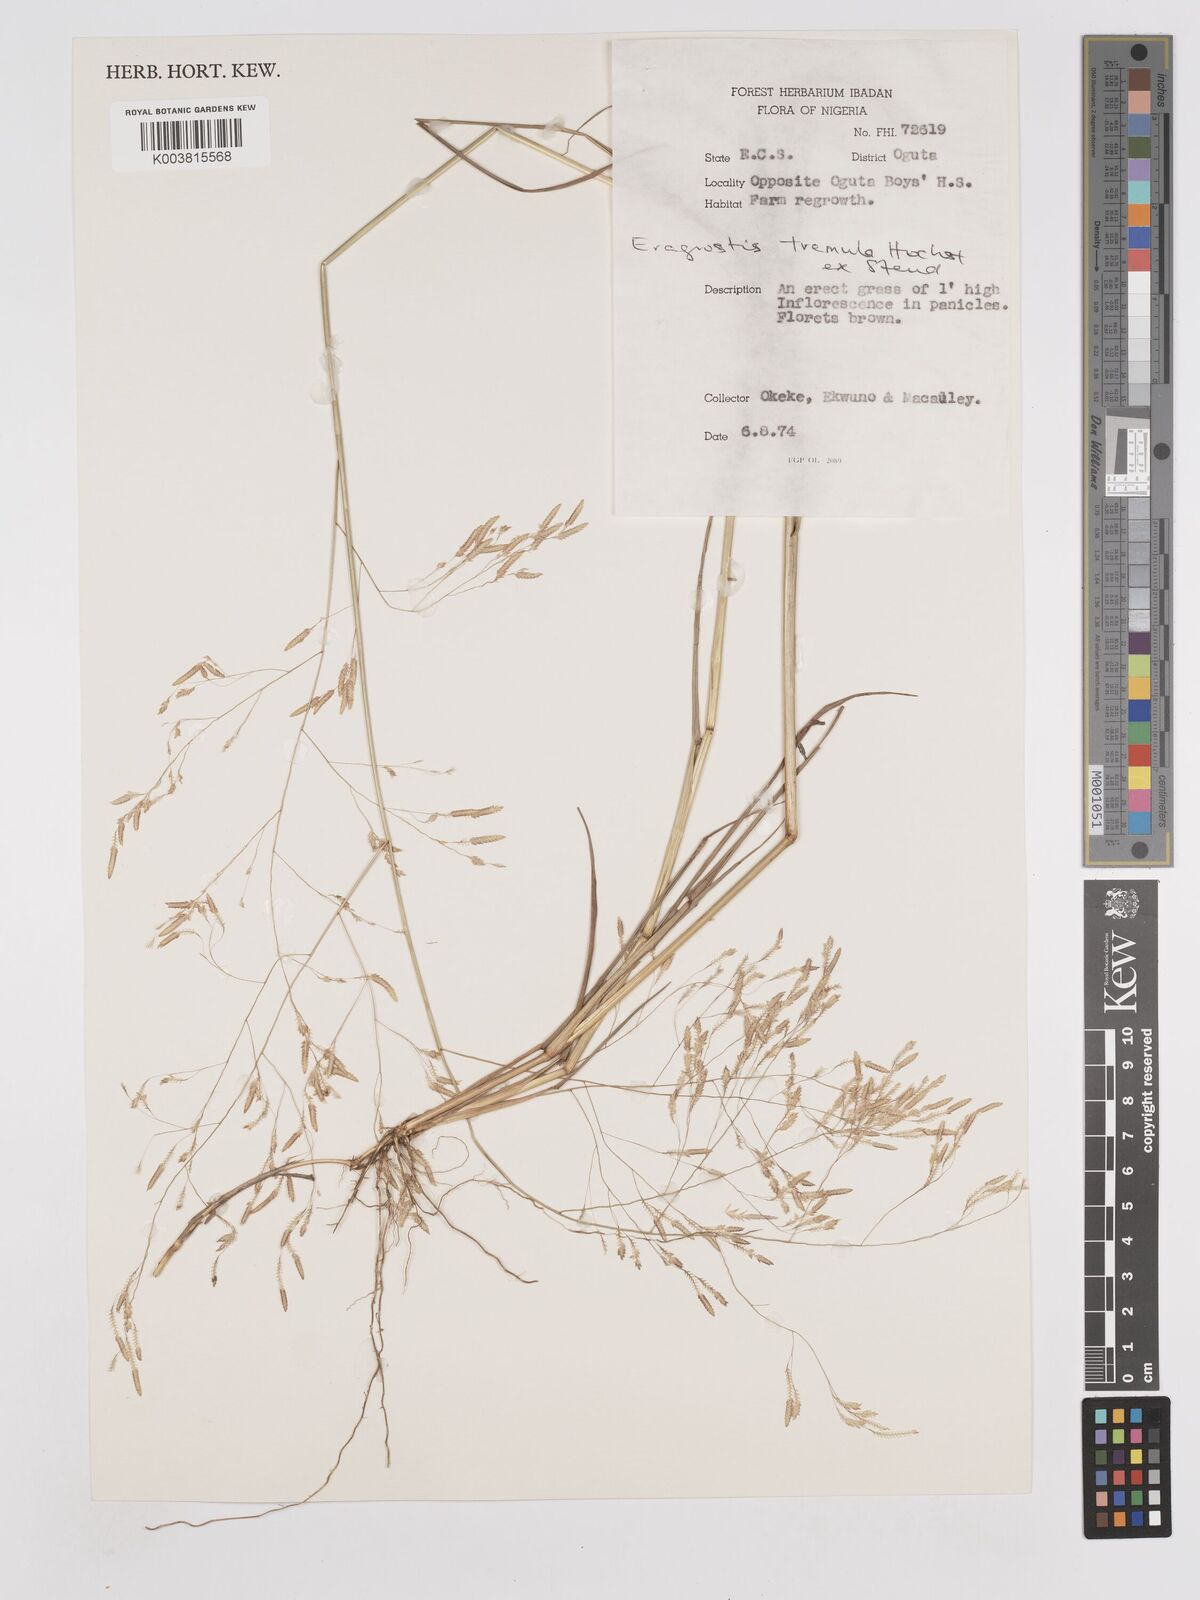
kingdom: Plantae
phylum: Tracheophyta
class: Liliopsida
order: Poales
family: Poaceae
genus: Eragrostis
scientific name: Eragrostis tremula
